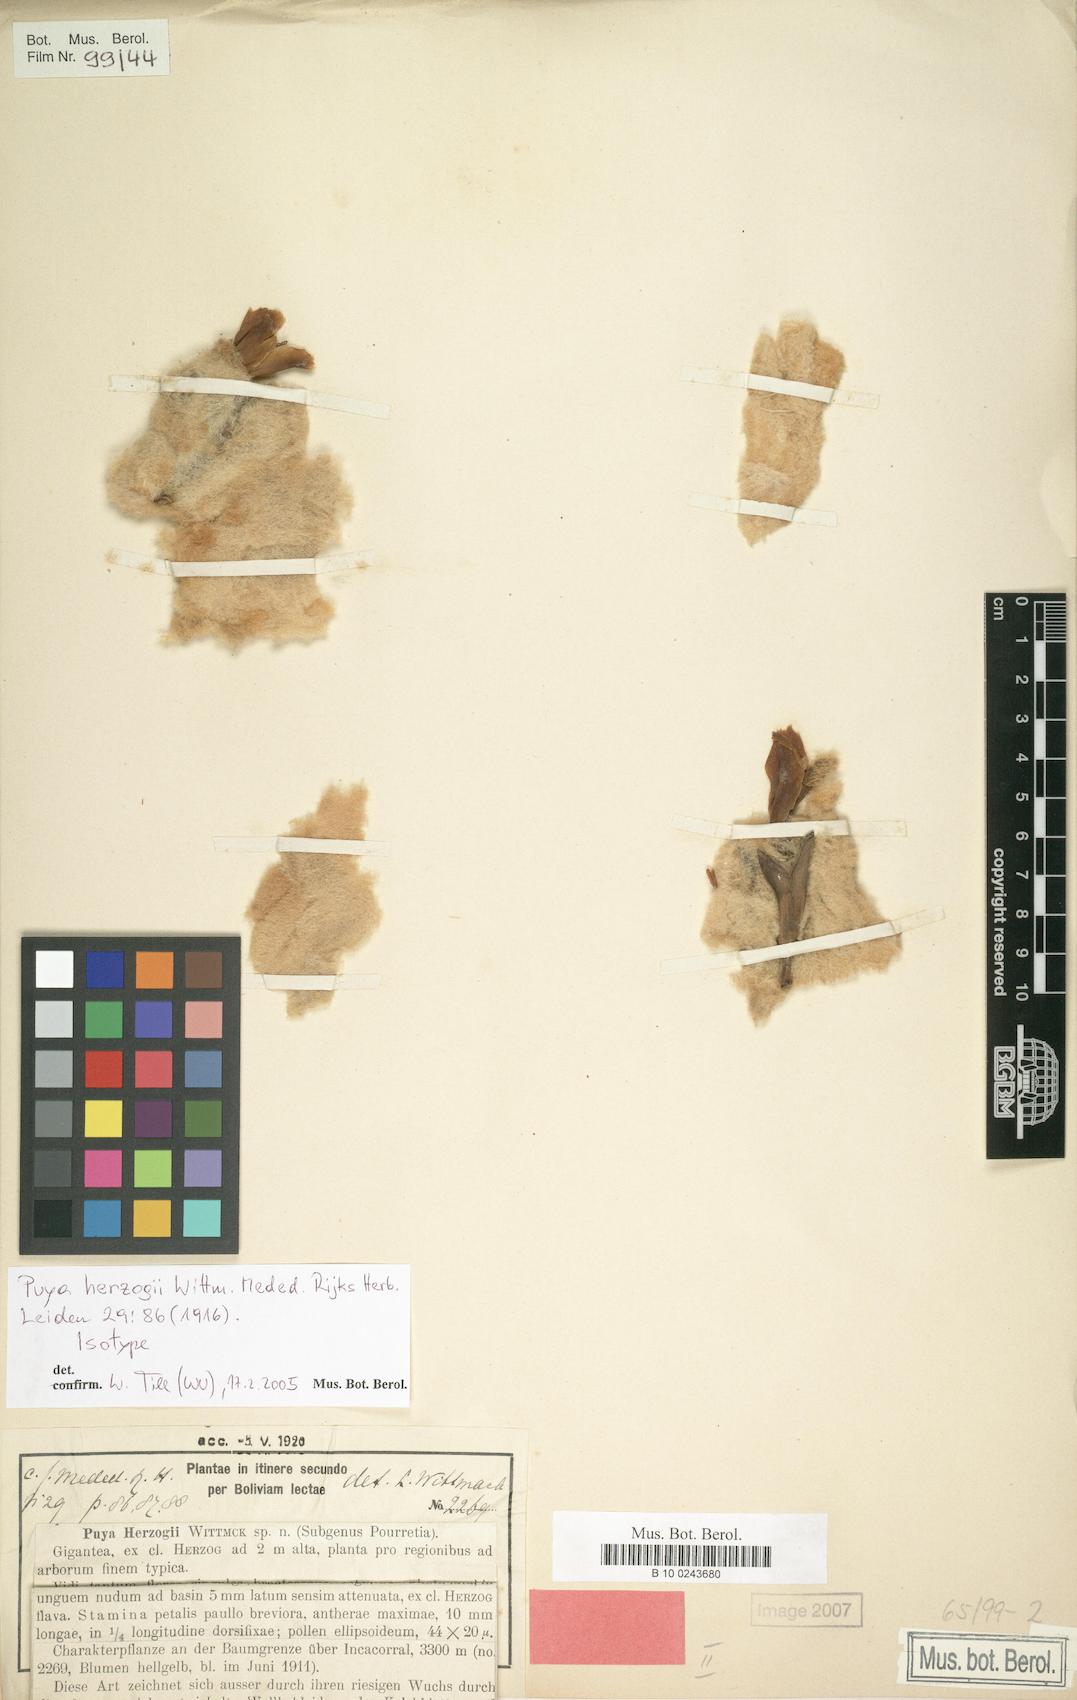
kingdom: Plantae
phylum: Tracheophyta
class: Liliopsida
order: Poales
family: Bromeliaceae
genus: Puya
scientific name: Puya herzogii
